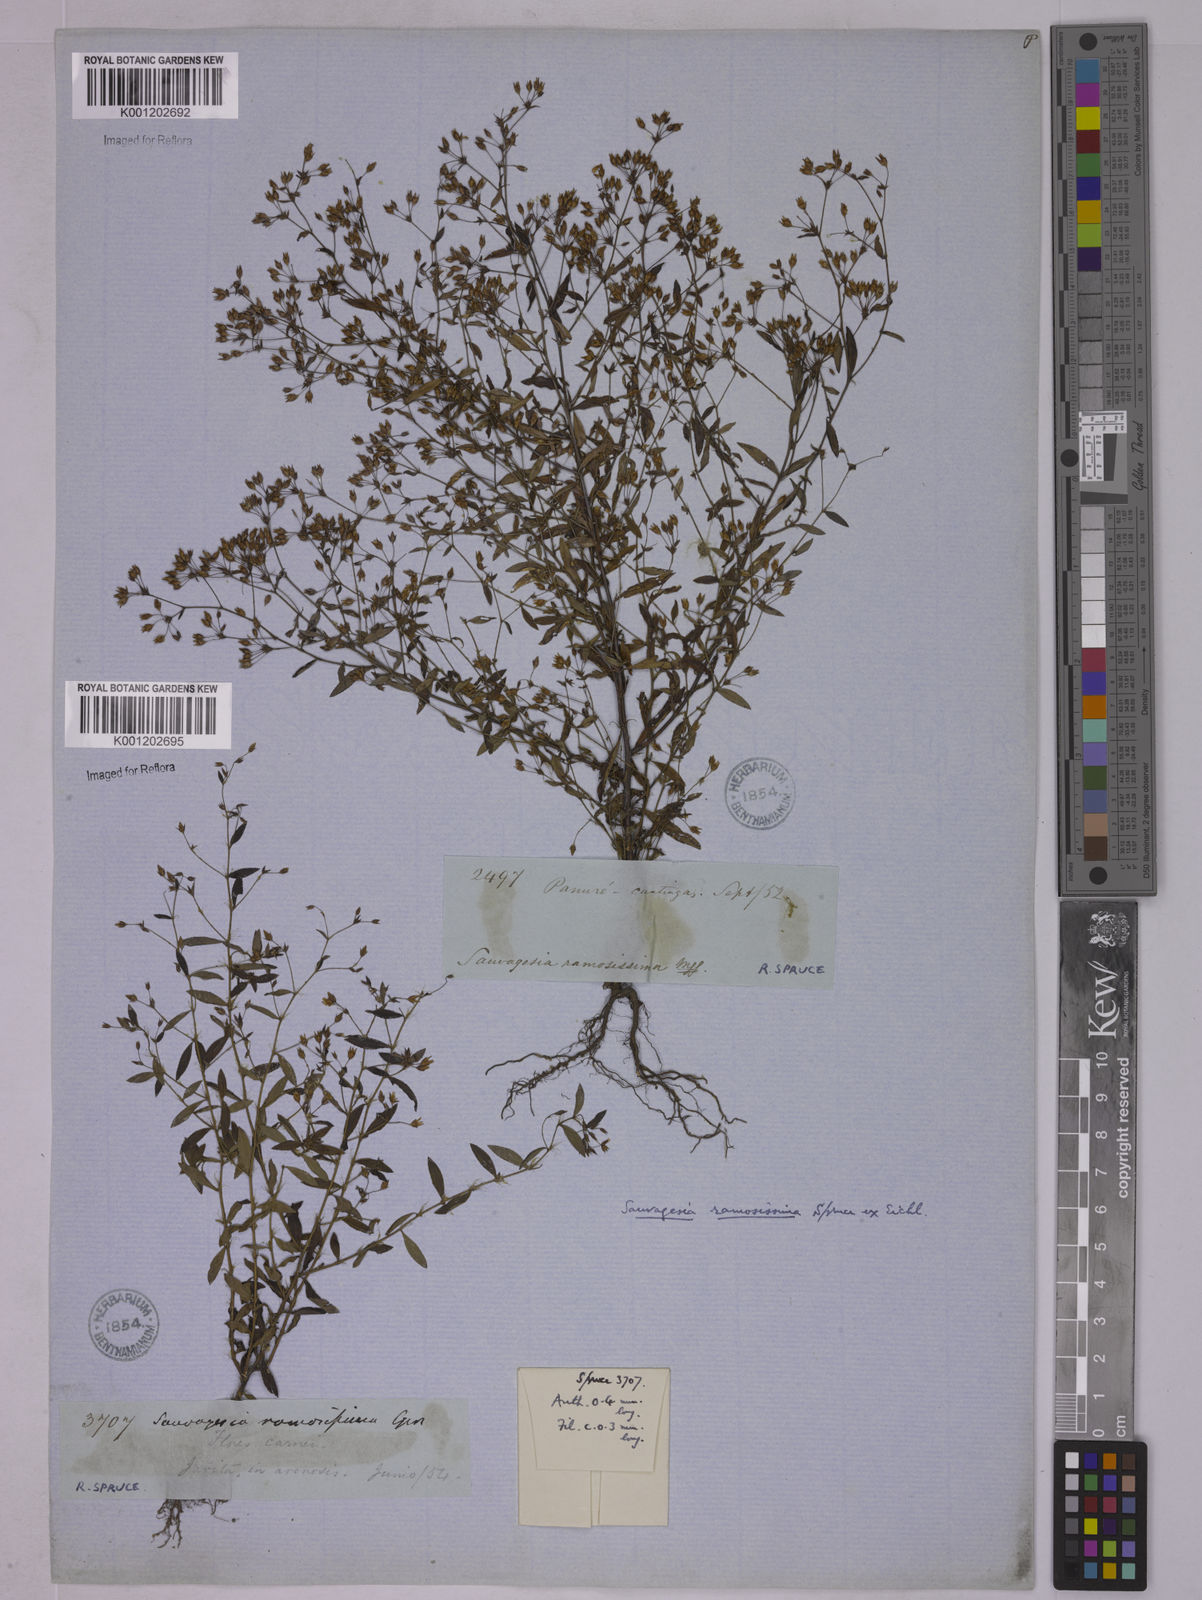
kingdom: Plantae
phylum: Tracheophyta
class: Magnoliopsida
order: Malpighiales
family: Ochnaceae
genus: Sauvagesia
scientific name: Sauvagesia ramosissima
